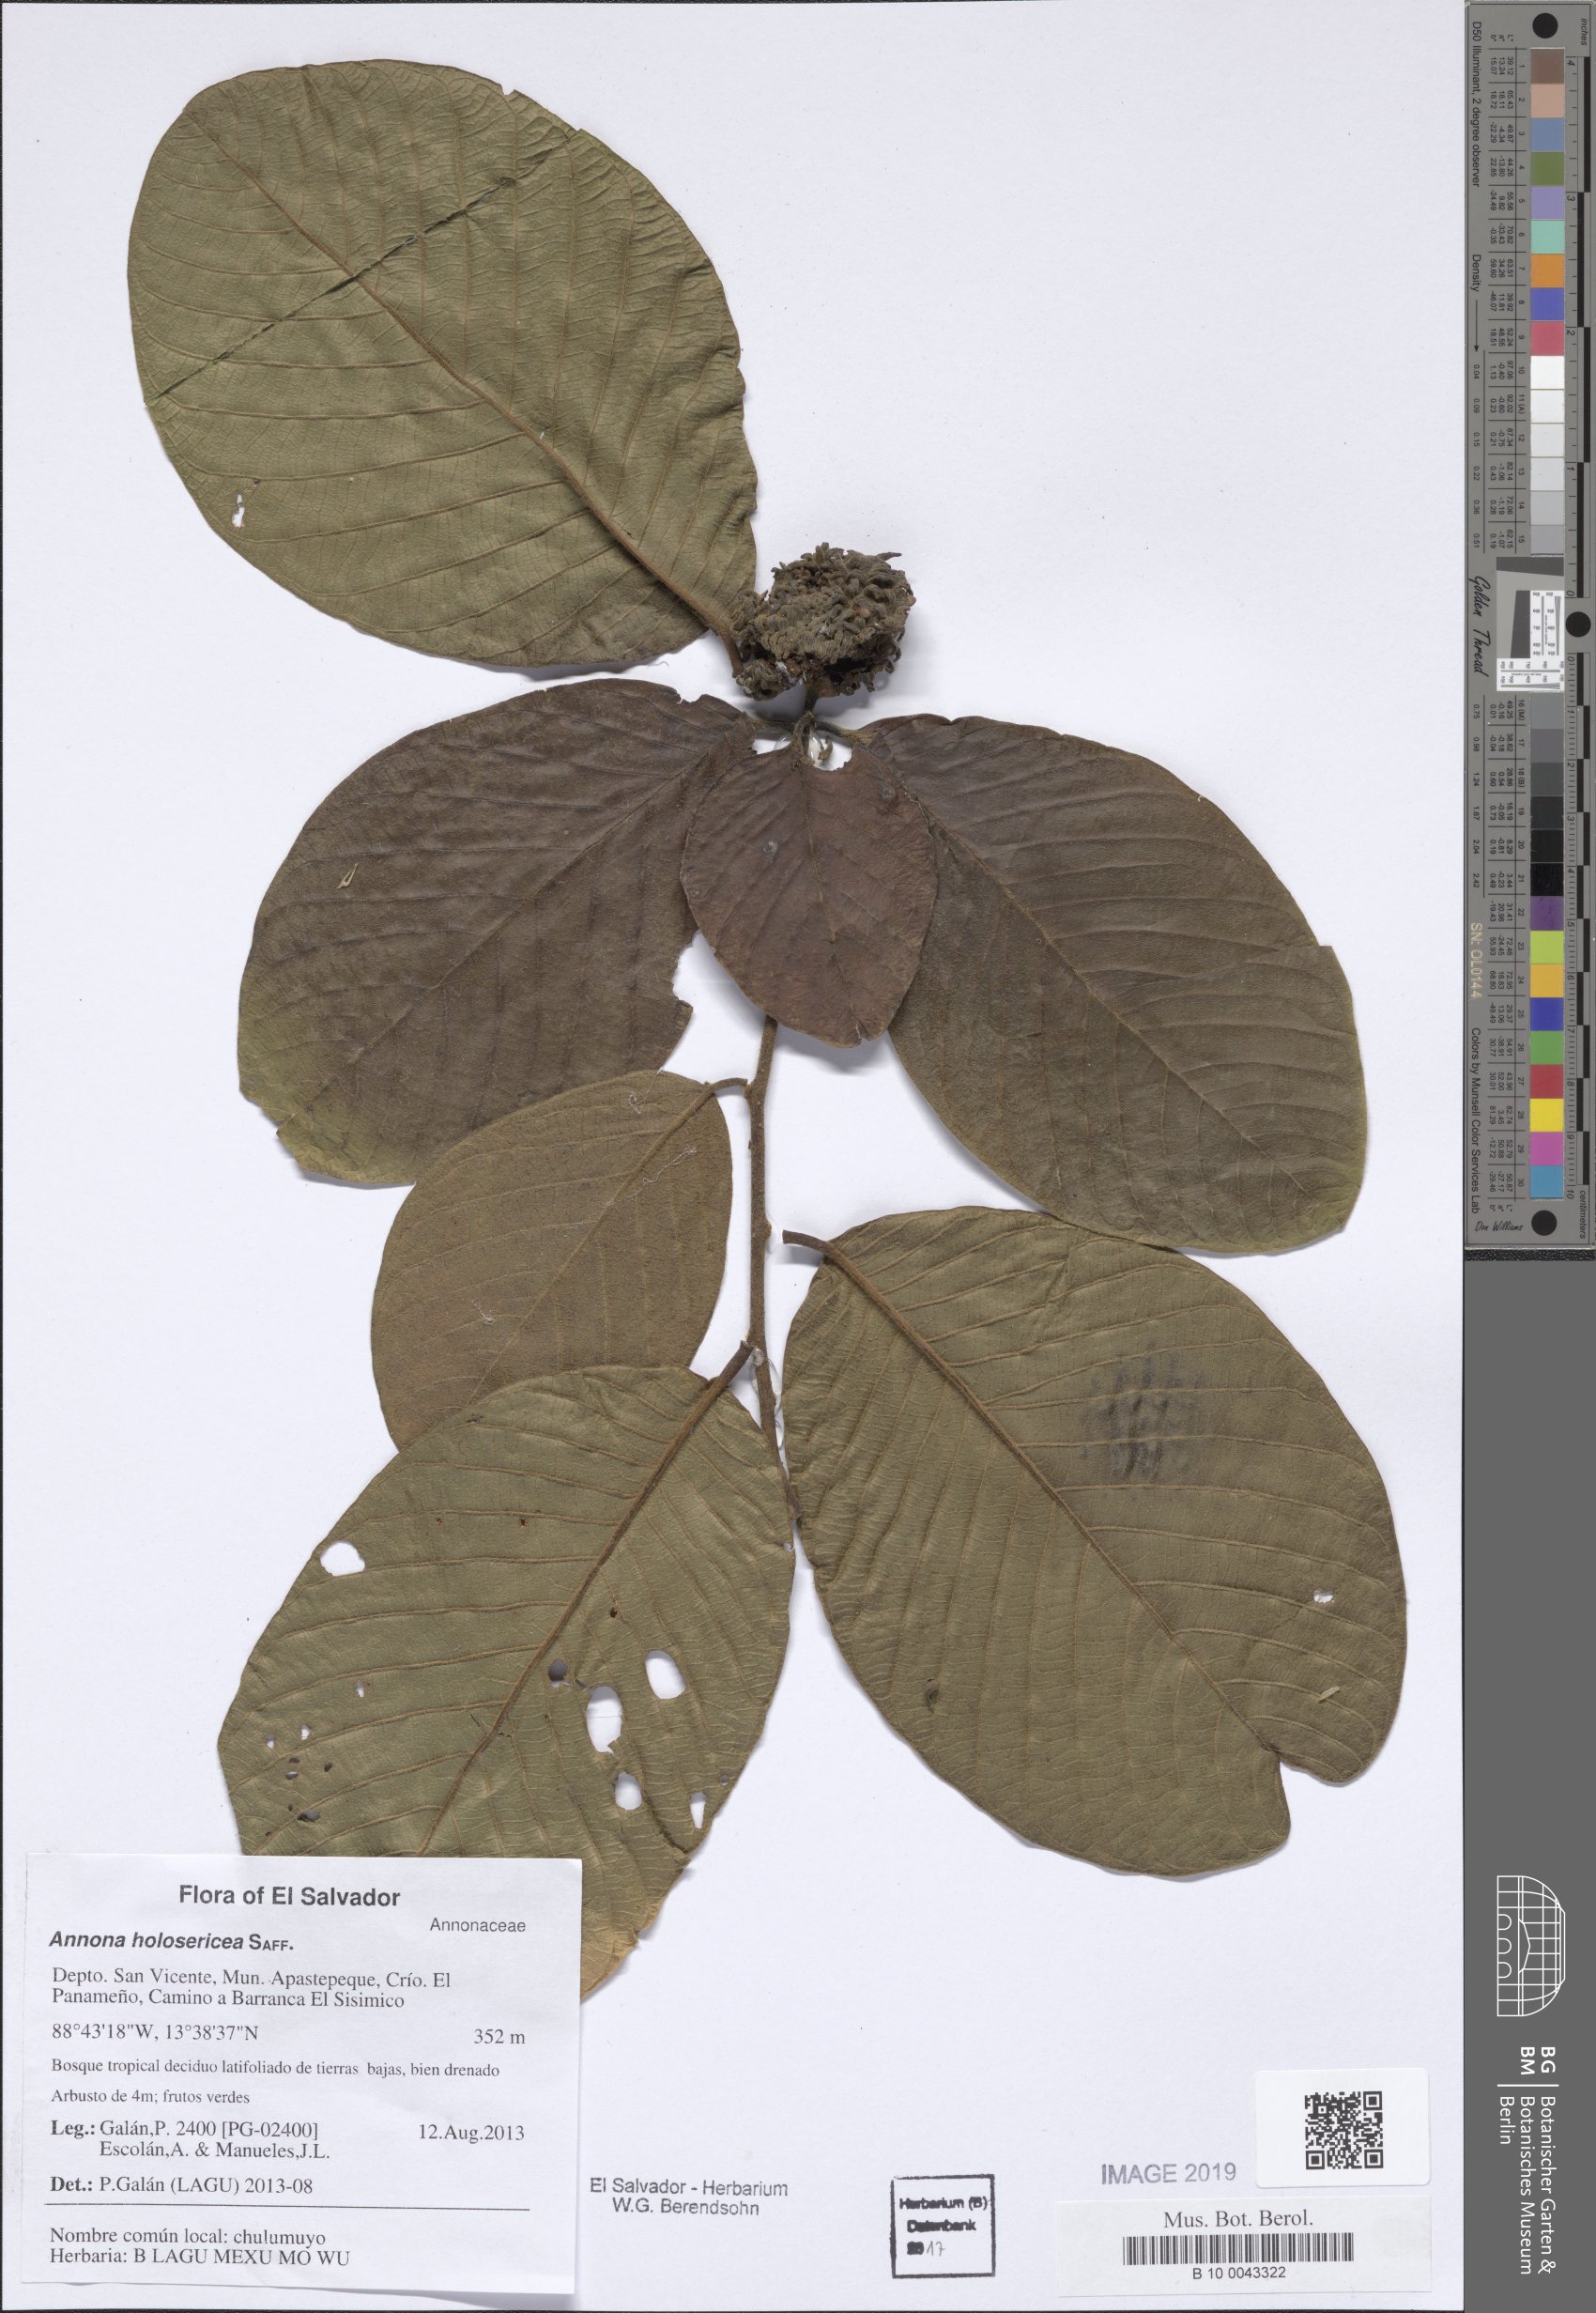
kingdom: Plantae
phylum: Tracheophyta
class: Magnoliopsida
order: Magnoliales
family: Annonaceae
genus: Annona
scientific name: Annona holosericea
